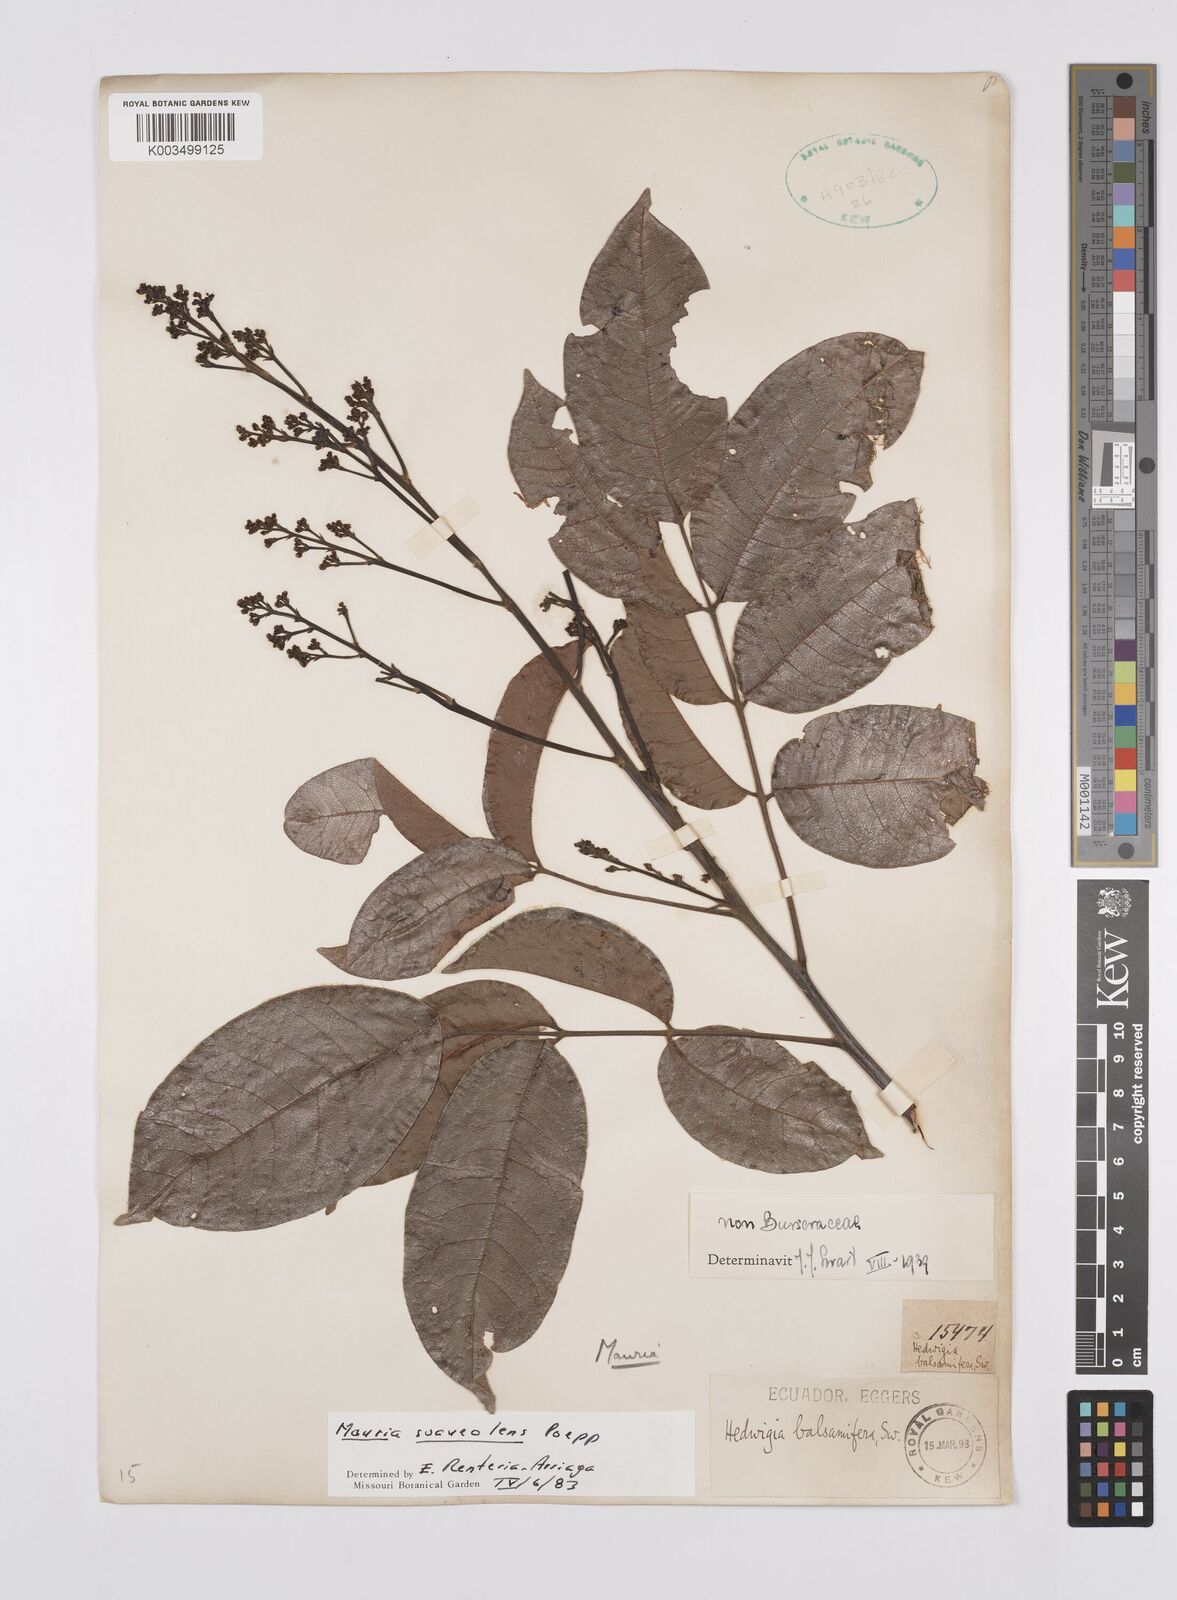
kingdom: Plantae
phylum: Tracheophyta
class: Magnoliopsida
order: Sapindales
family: Anacardiaceae
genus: Mauria
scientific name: Mauria heterophylla
